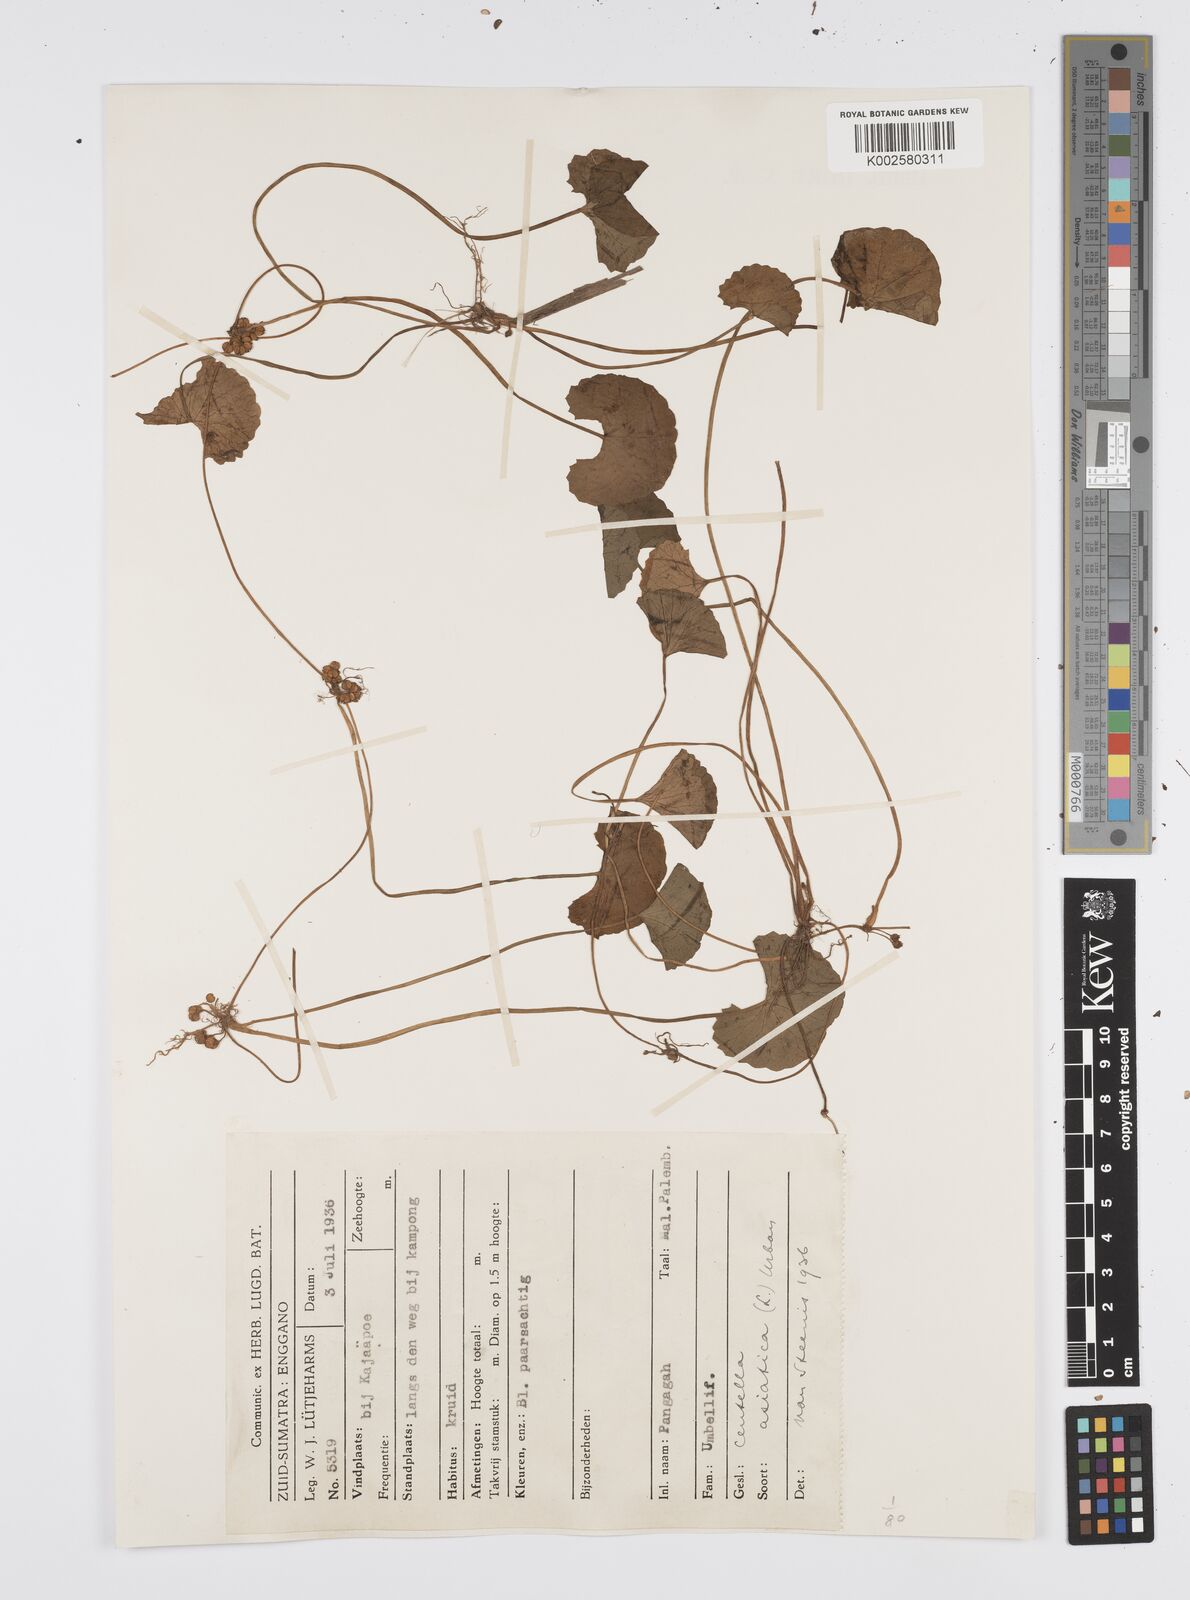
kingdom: Plantae
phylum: Tracheophyta
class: Magnoliopsida
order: Apiales
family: Apiaceae
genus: Centella
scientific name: Centella asiatica
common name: Spadeleaf
